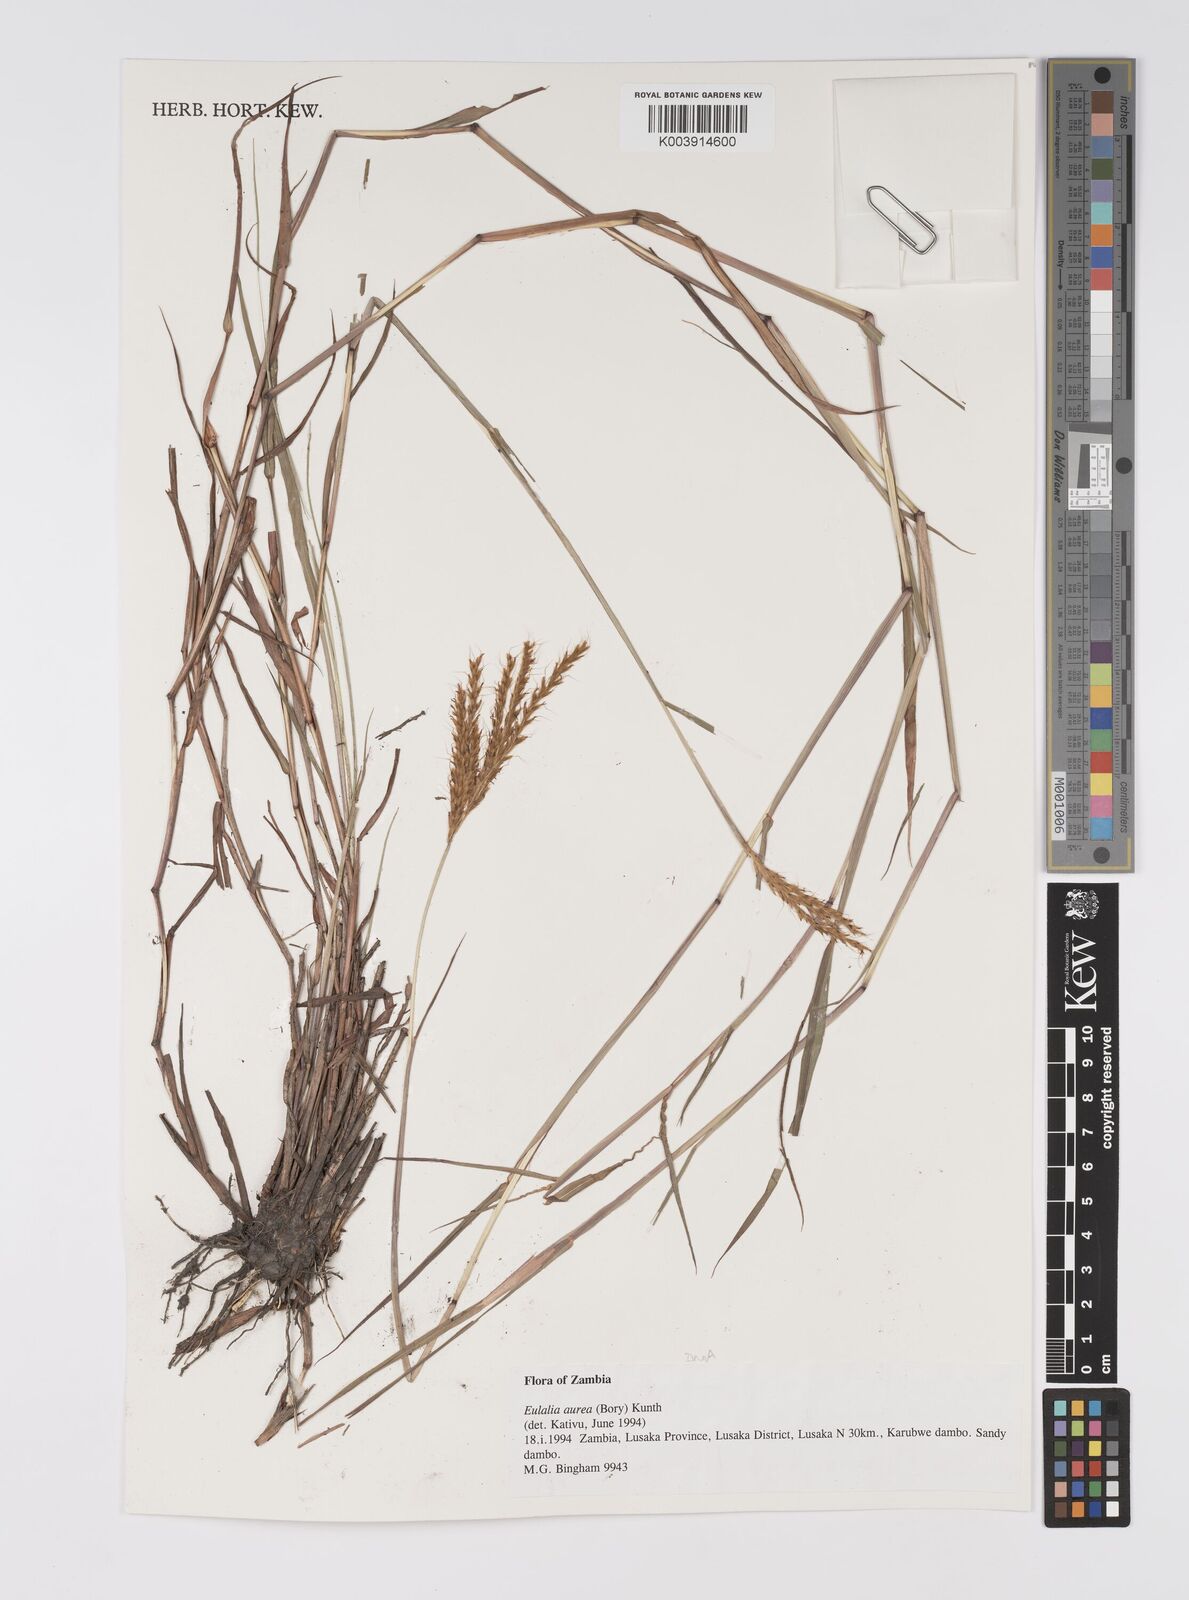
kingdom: Plantae
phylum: Tracheophyta
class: Liliopsida
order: Poales
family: Poaceae
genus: Eulalia
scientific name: Eulalia aurea
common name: Silky browntop
